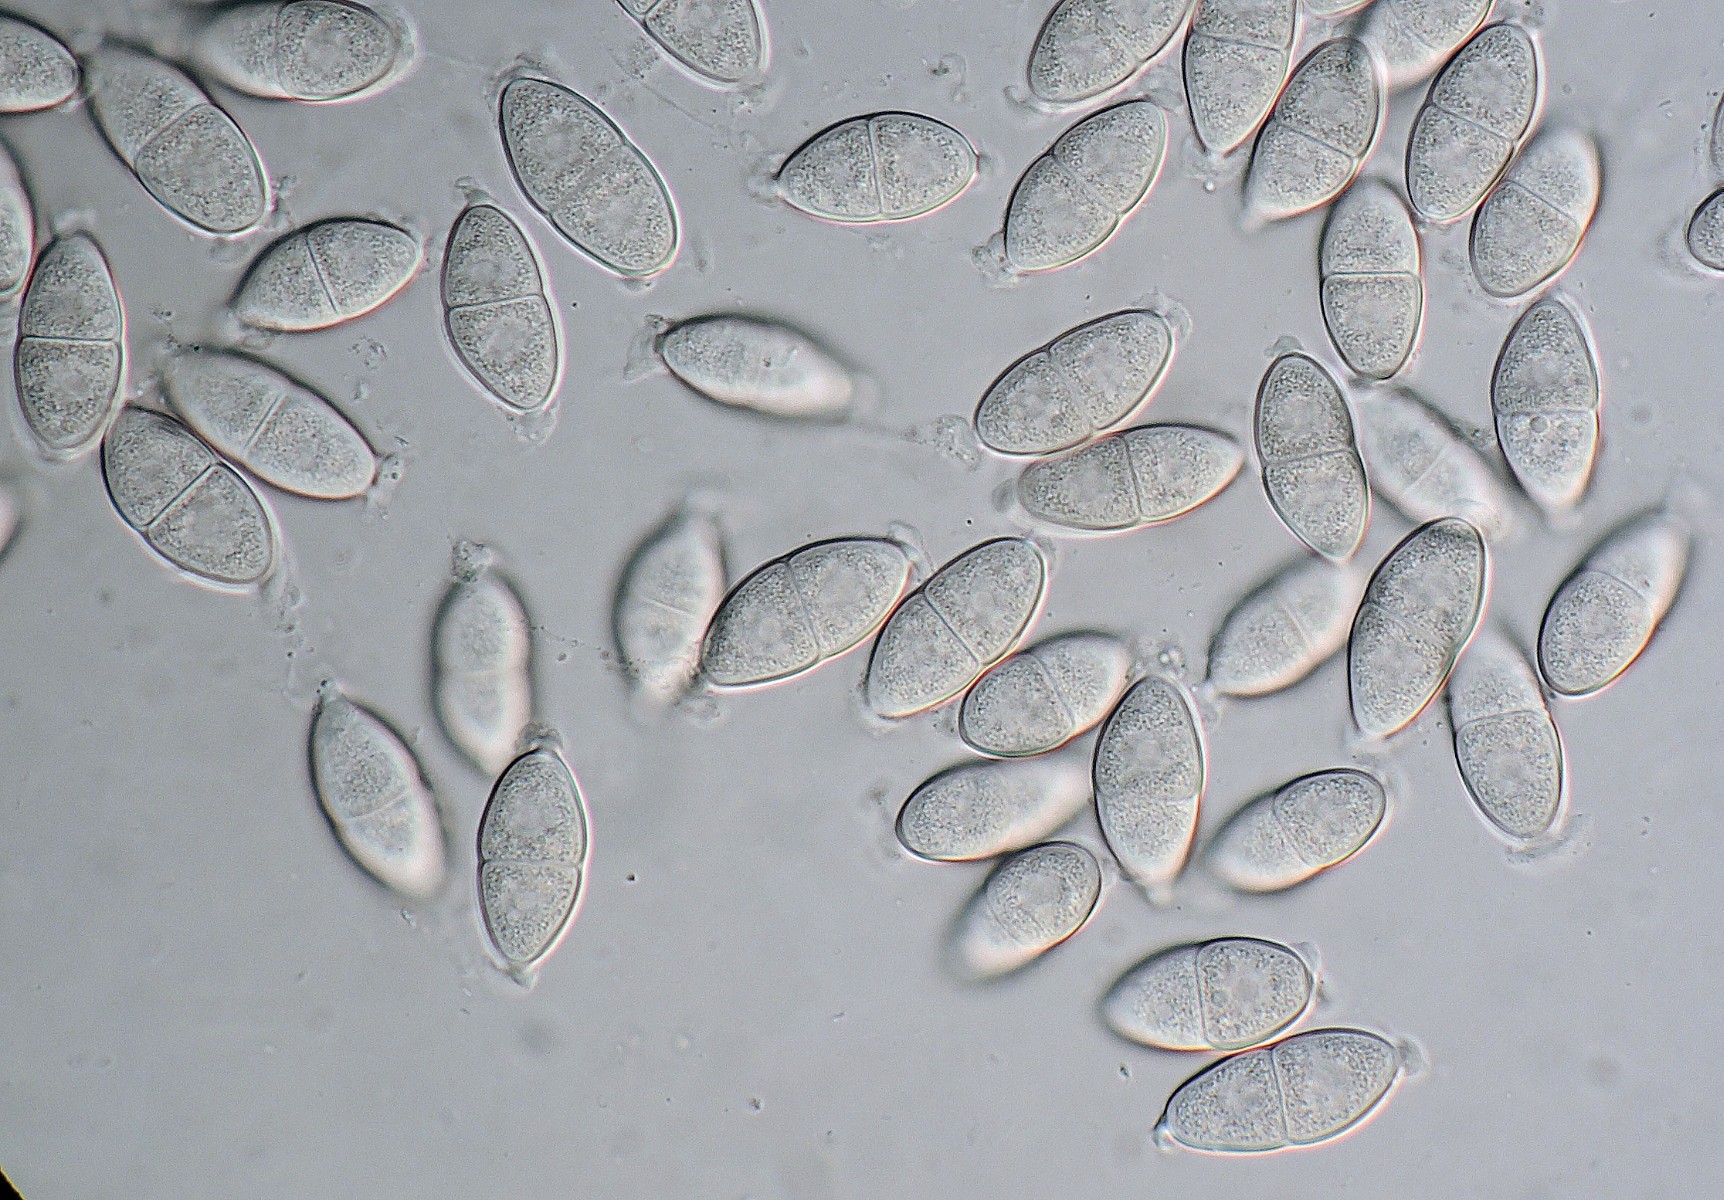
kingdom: Fungi
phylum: Ascomycota
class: Dothideomycetes
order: Pleosporales
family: Didymosphaeriaceae
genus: Montagnula
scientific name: Montagnula perforans
